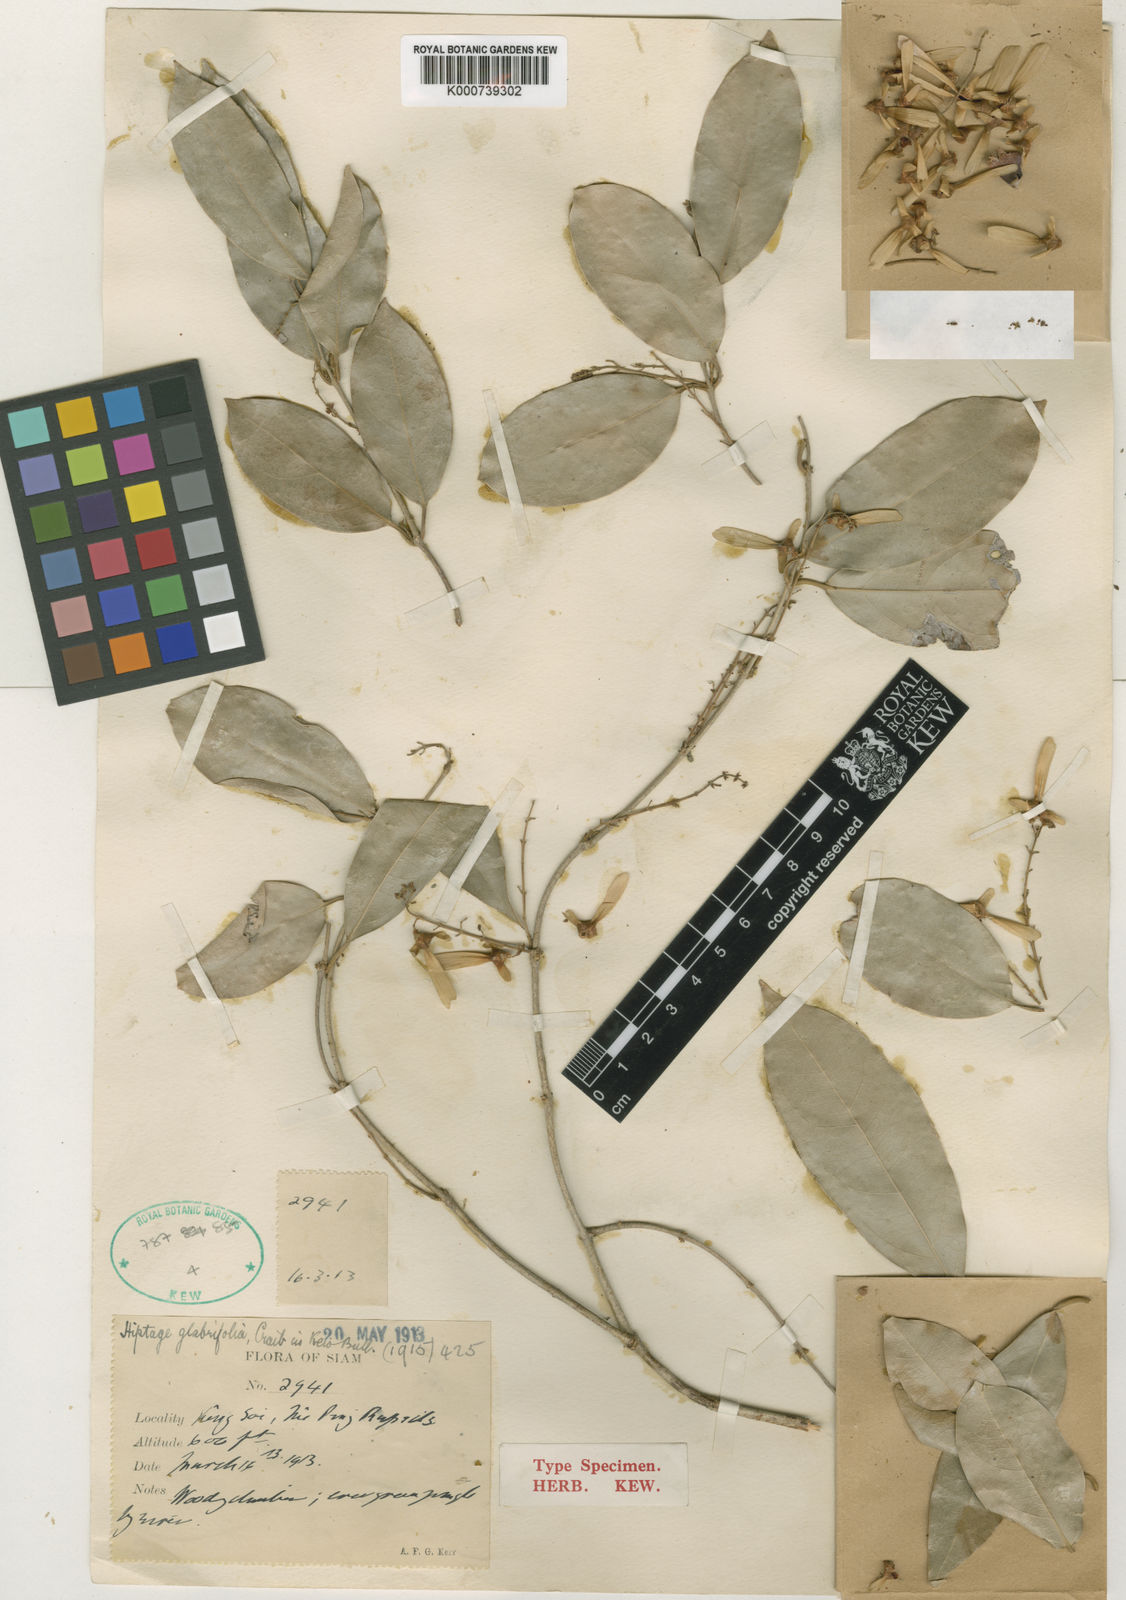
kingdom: Plantae
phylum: Tracheophyta
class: Magnoliopsida
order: Malpighiales
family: Malpighiaceae
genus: Hiptage
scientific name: Hiptage glabrifolia
